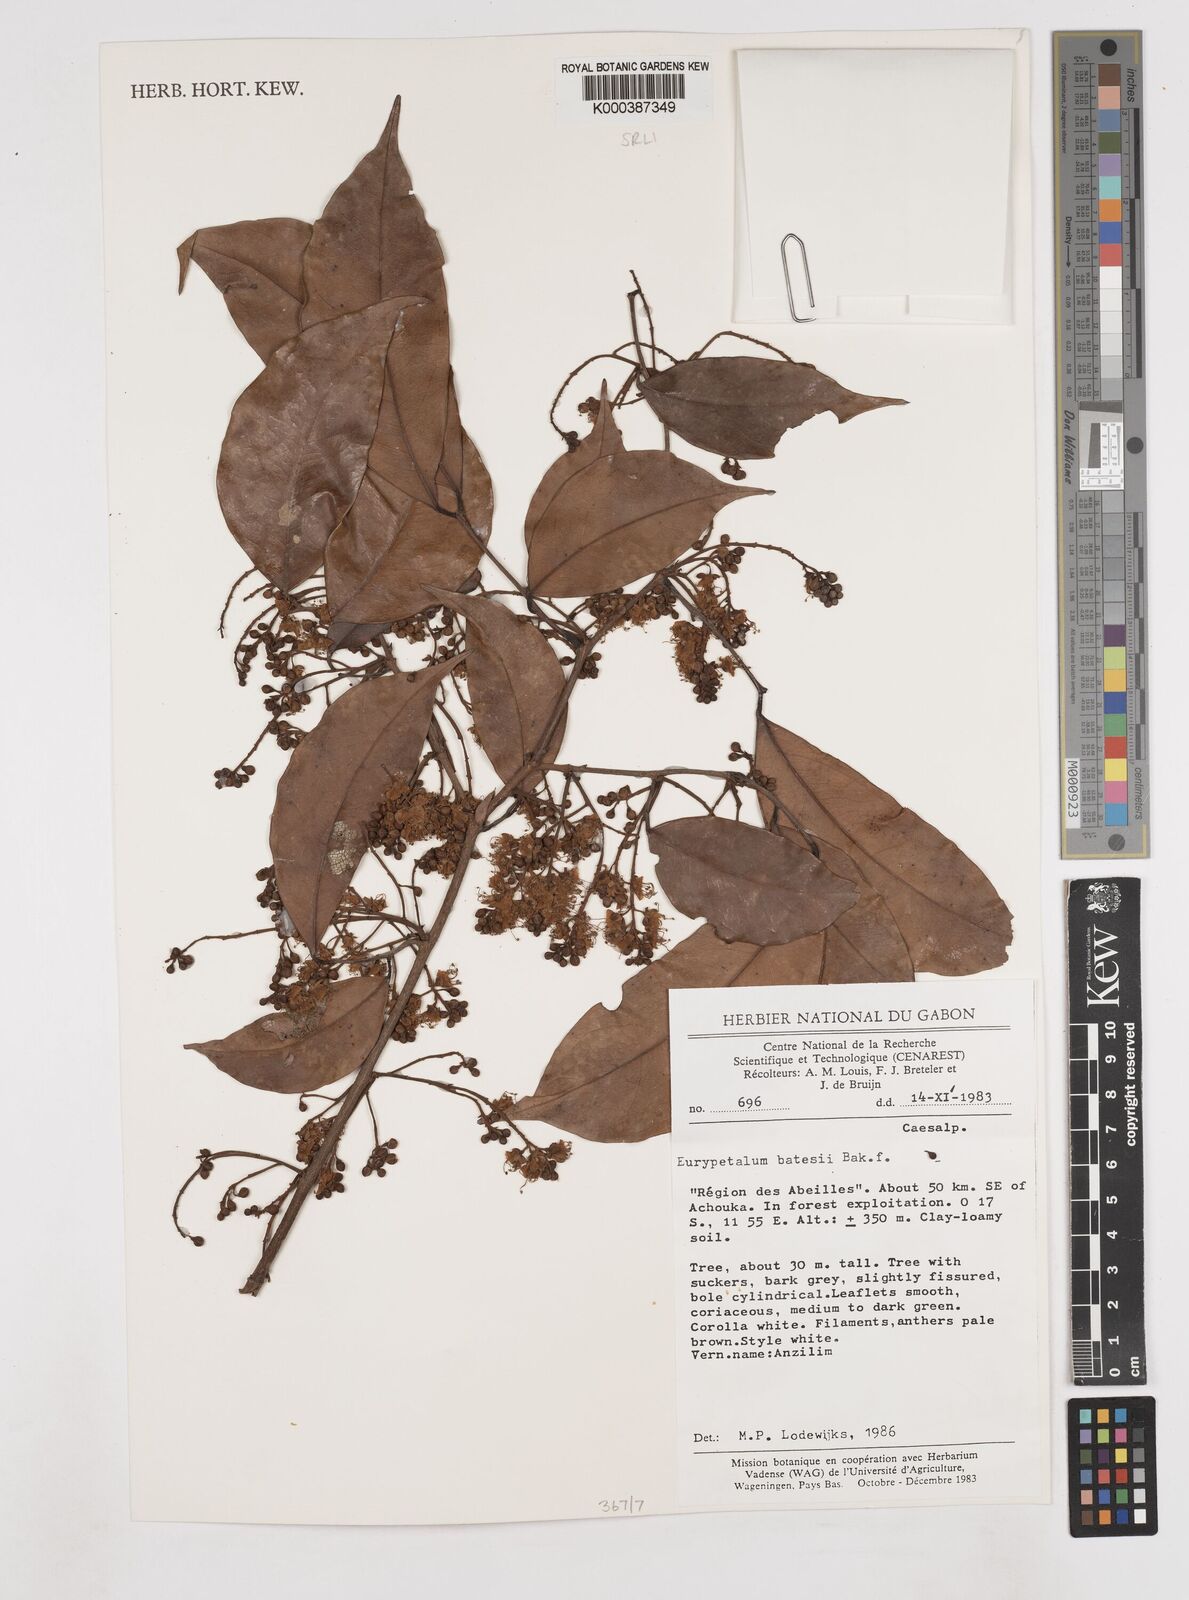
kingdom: Plantae
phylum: Tracheophyta
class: Magnoliopsida
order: Fabales
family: Fabaceae
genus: Eurypetalum
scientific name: Eurypetalum tessmannii
